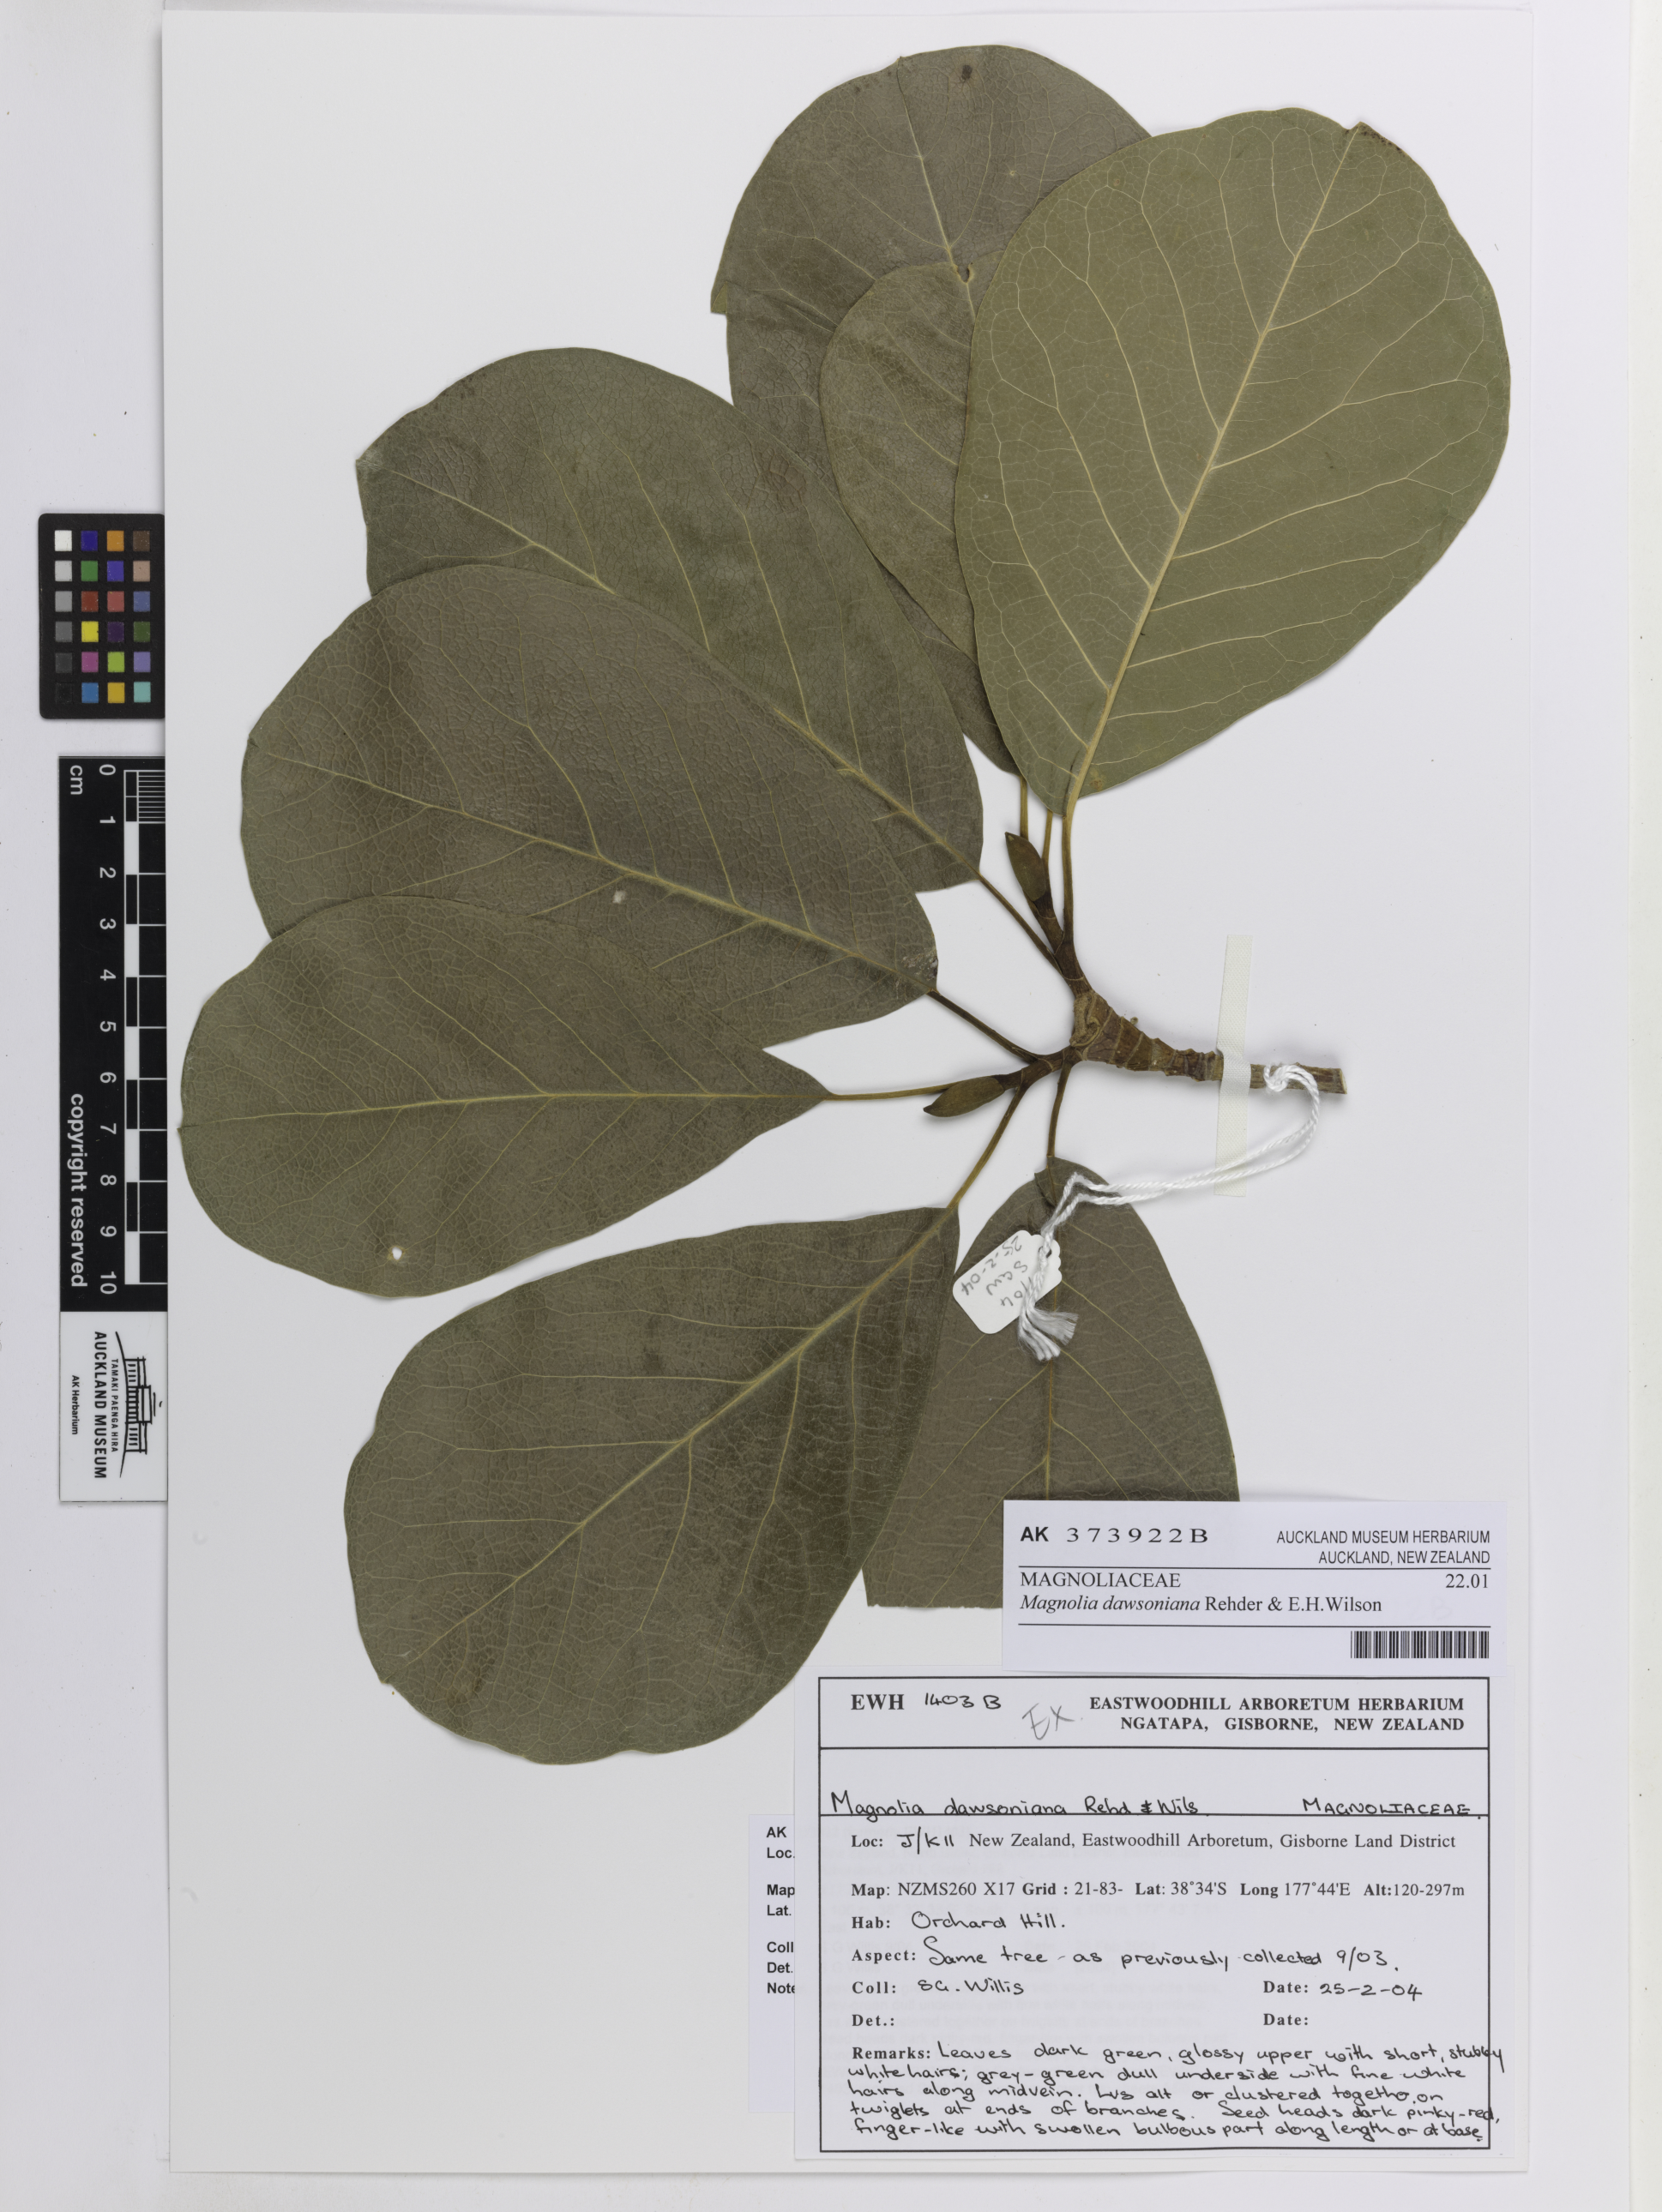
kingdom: Plantae
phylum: Tracheophyta
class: Magnoliopsida
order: Magnoliales
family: Magnoliaceae
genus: Magnolia
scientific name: Magnolia dawsoniana
